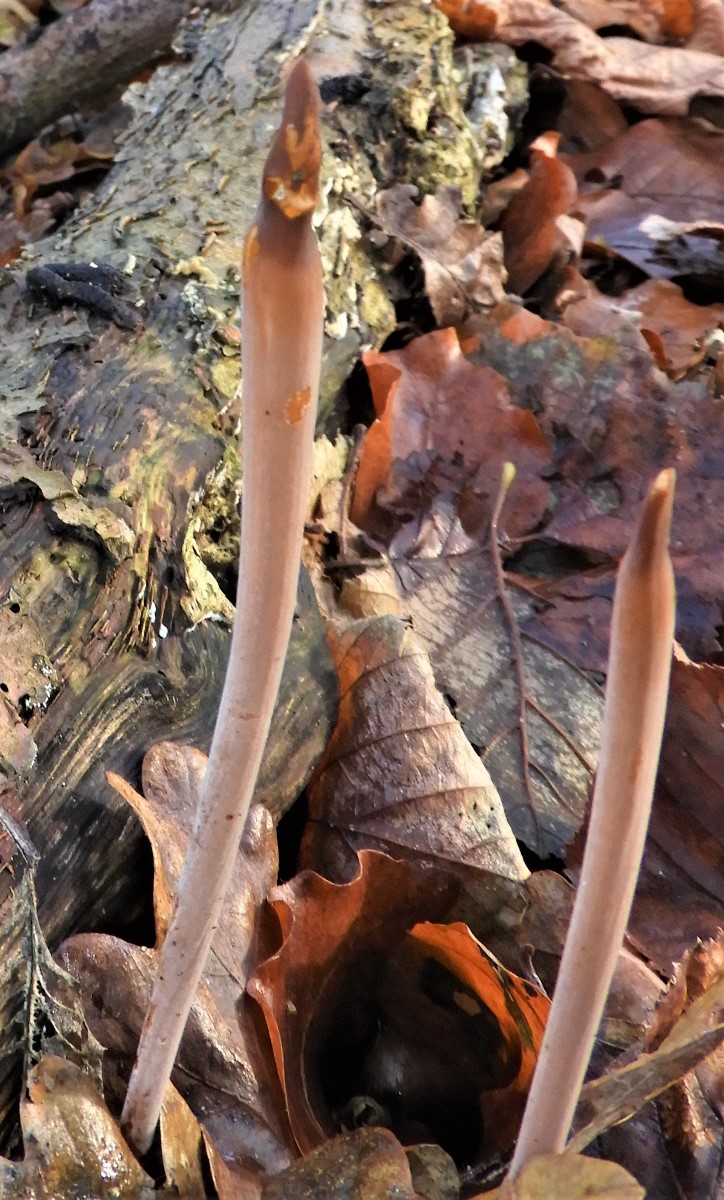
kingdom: Fungi
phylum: Basidiomycota
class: Agaricomycetes
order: Agaricales
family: Typhulaceae
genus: Typhula
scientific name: Typhula fistulosa
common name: pibet rørkølle
